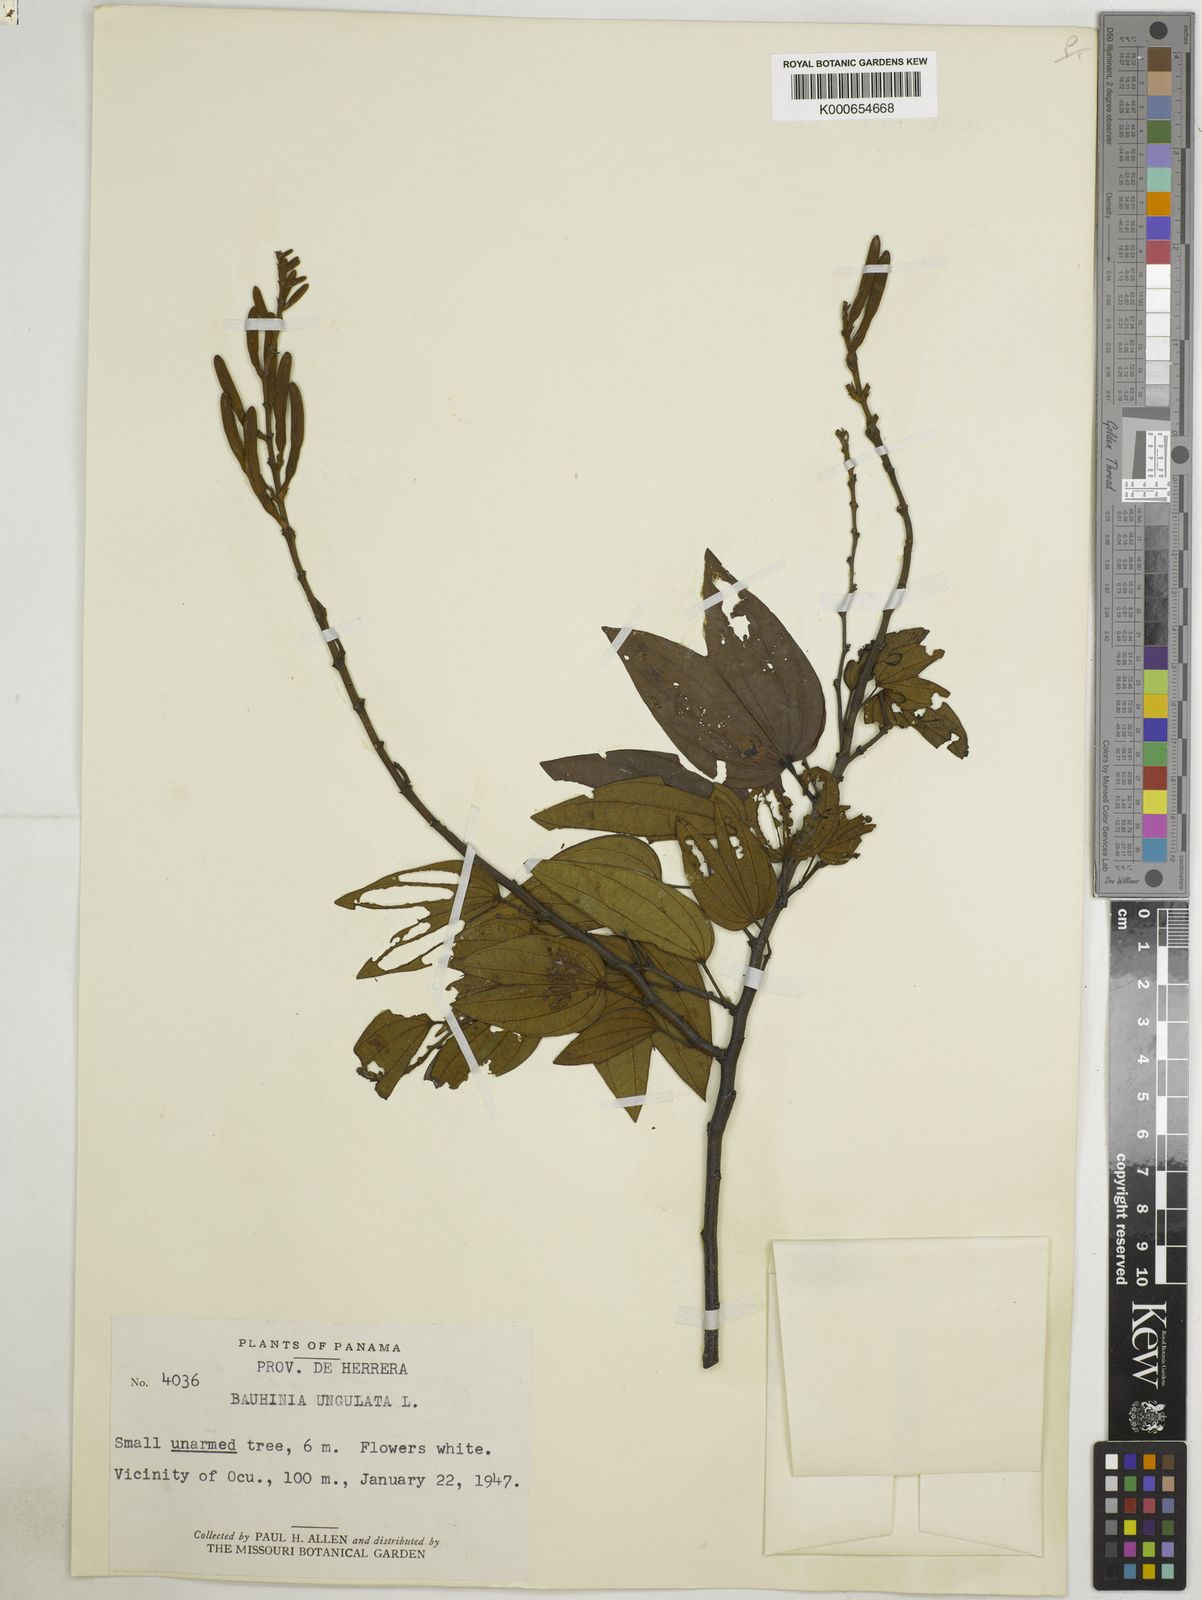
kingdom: Plantae
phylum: Tracheophyta
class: Magnoliopsida
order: Fabales
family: Fabaceae
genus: Bauhinia
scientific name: Bauhinia ungulata
